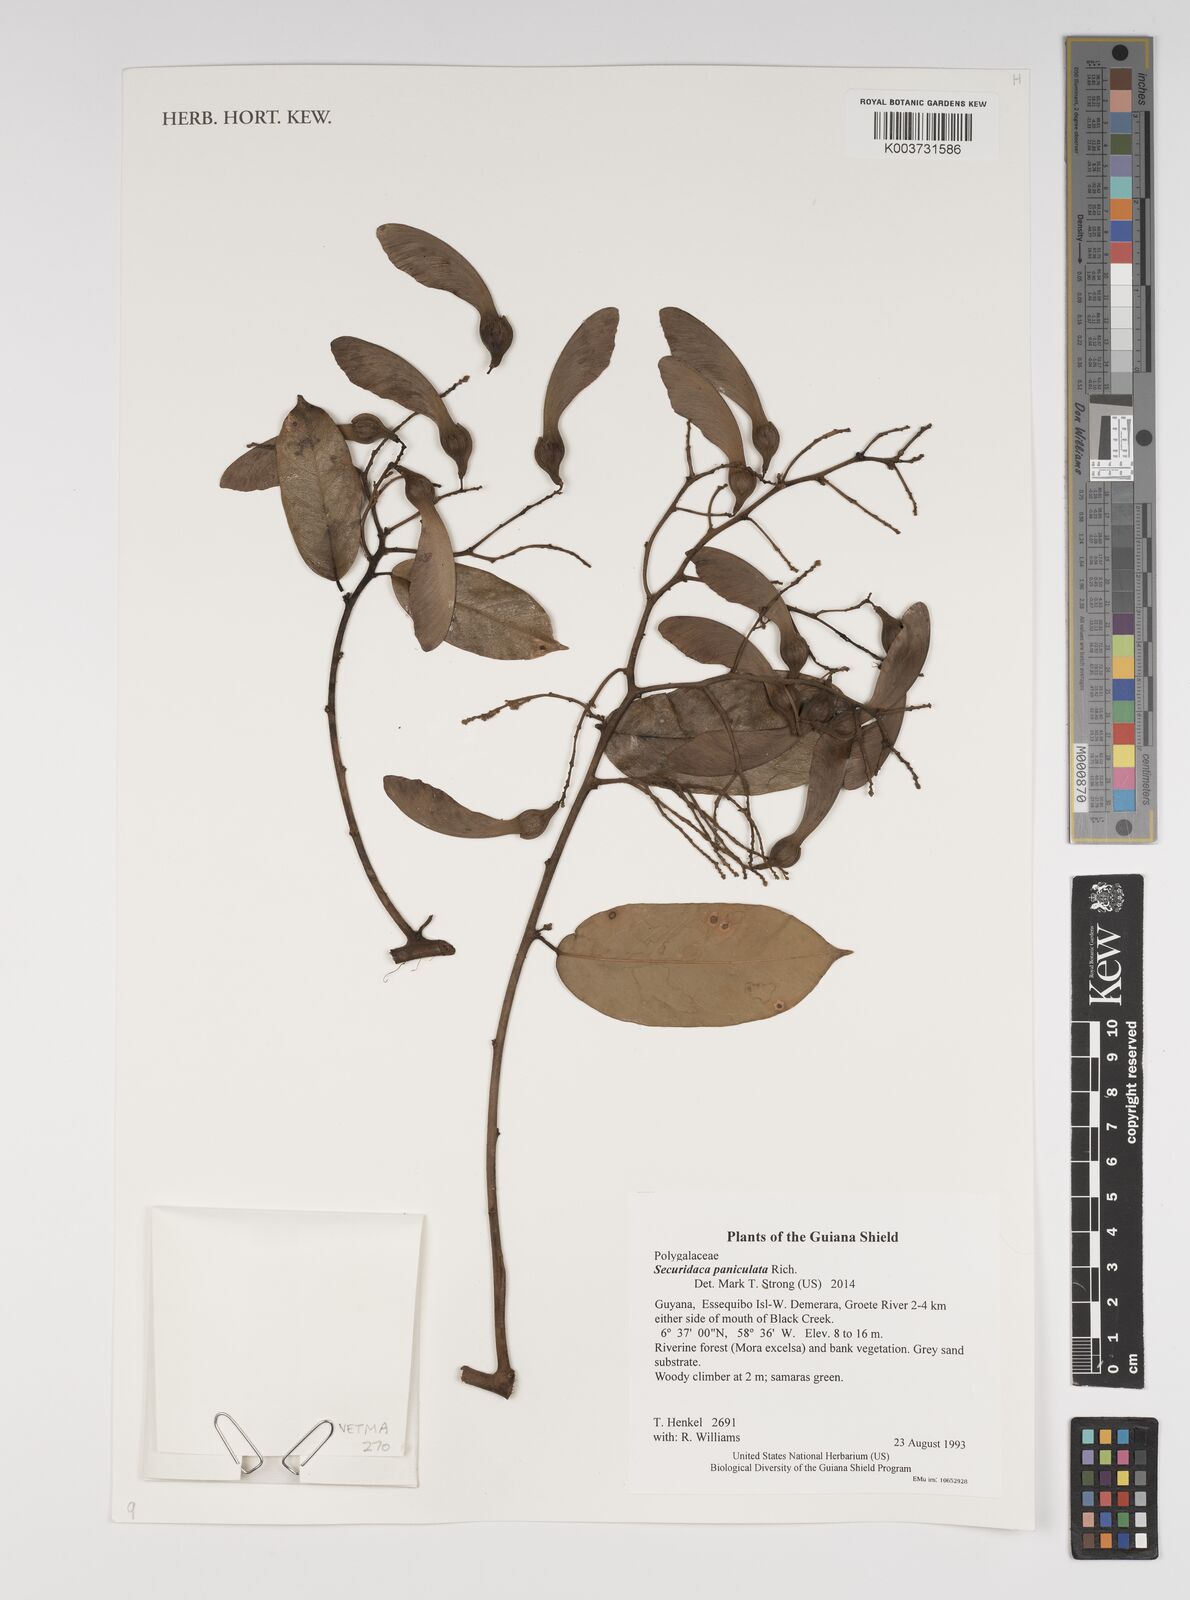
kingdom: Plantae
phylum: Tracheophyta
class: Magnoliopsida
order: Fabales
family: Polygalaceae
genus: Securidaca
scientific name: Securidaca paniculata
